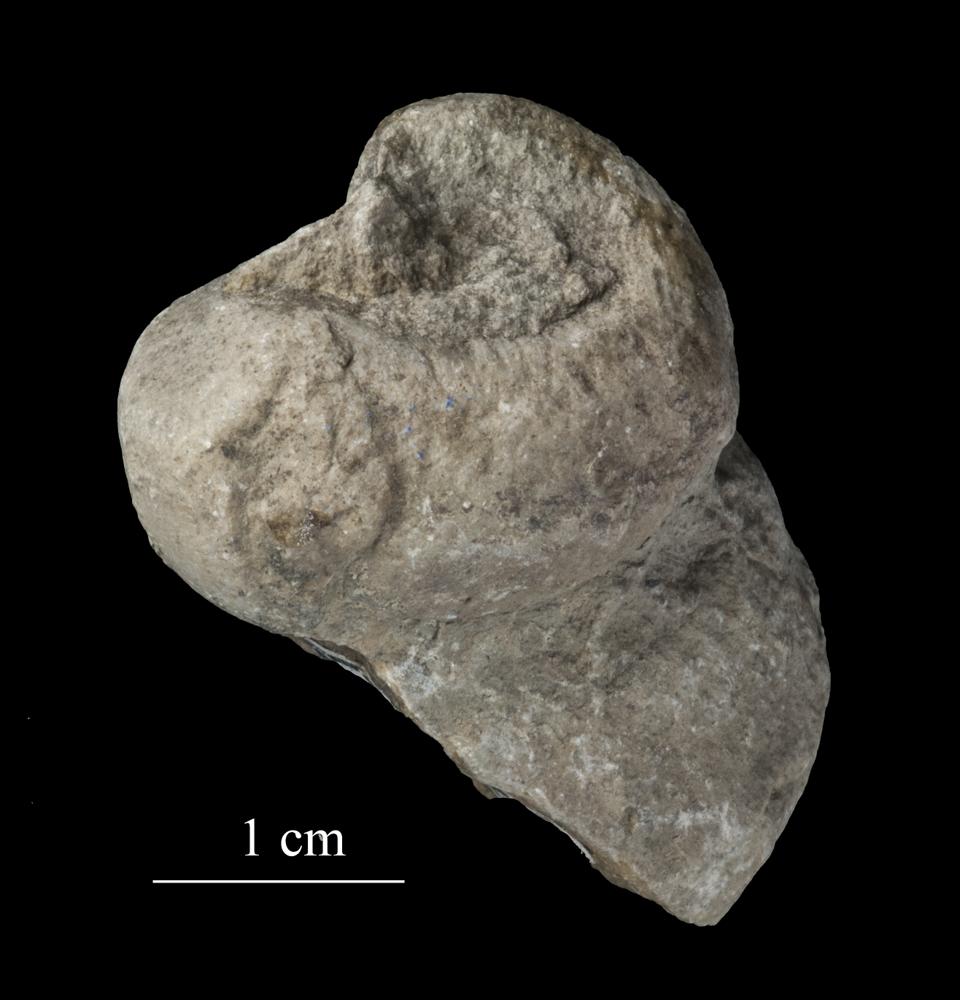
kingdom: Animalia
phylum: Mollusca
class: Gastropoda
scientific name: Gastropoda
